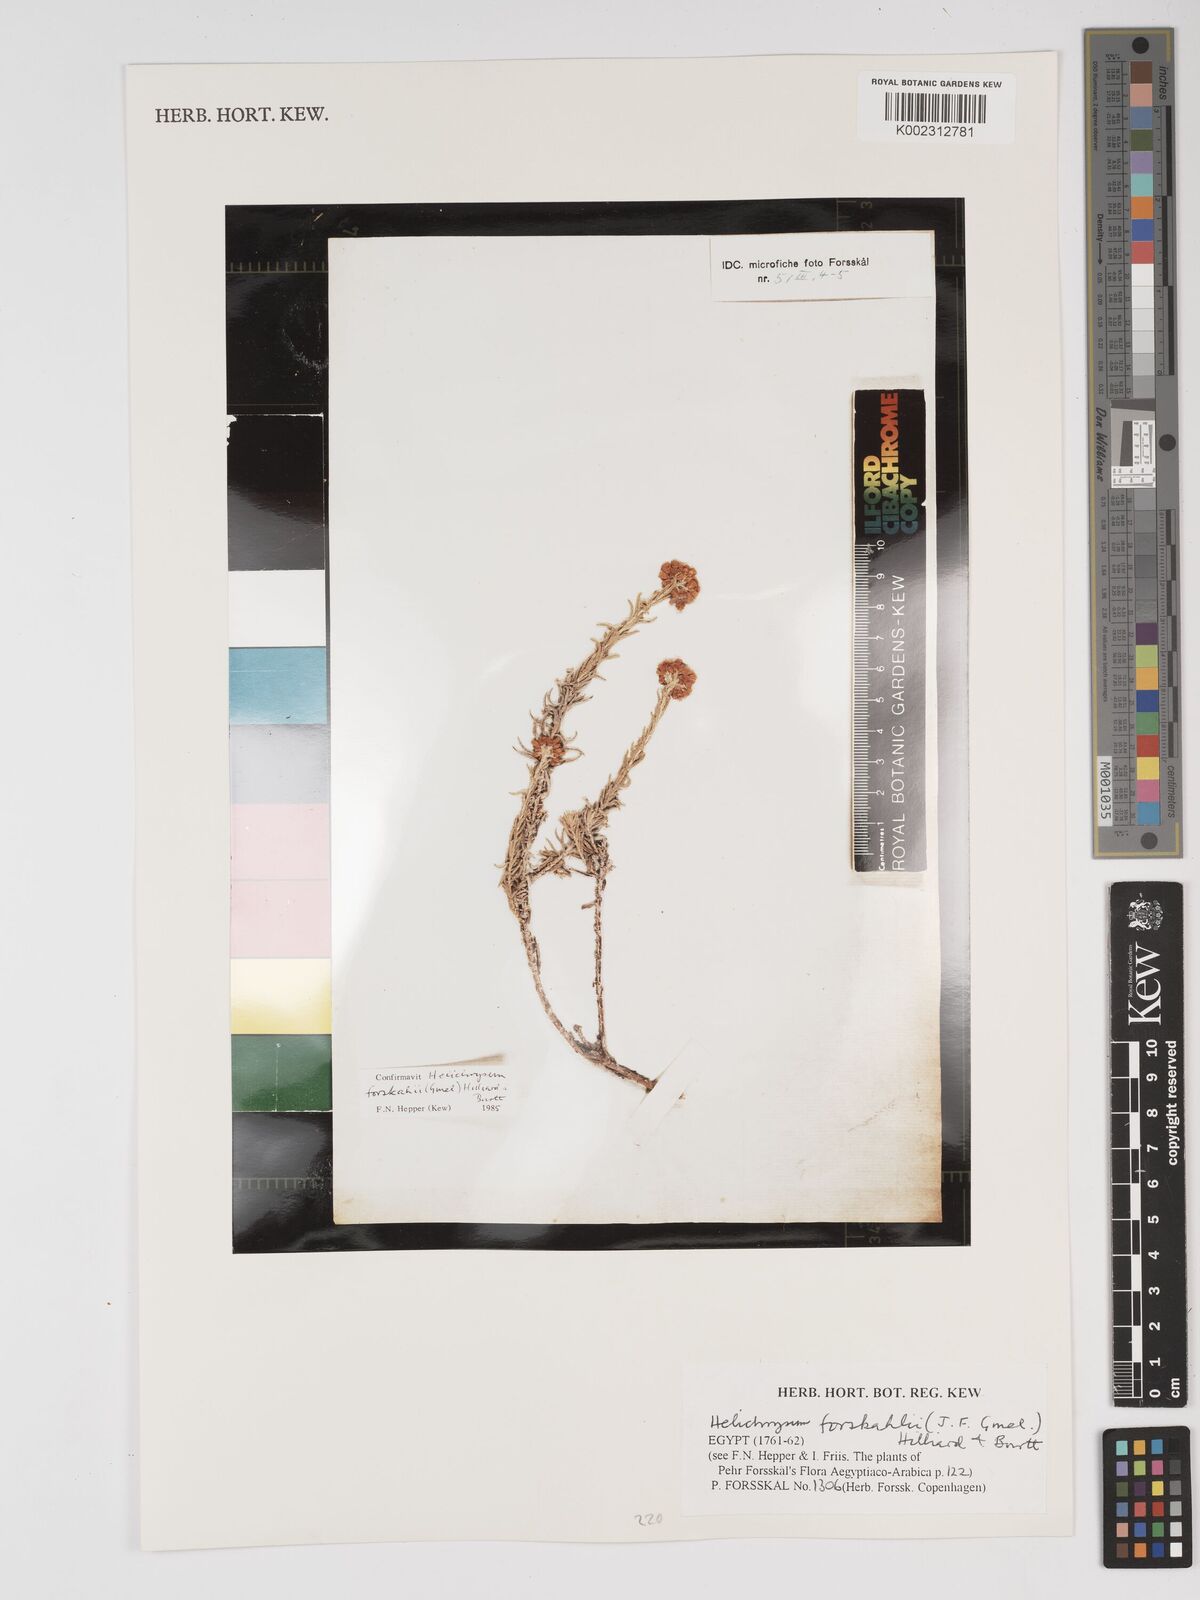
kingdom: Plantae
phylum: Tracheophyta
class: Magnoliopsida
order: Asterales
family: Asteraceae
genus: Helichrysum
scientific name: Helichrysum forskahlii
